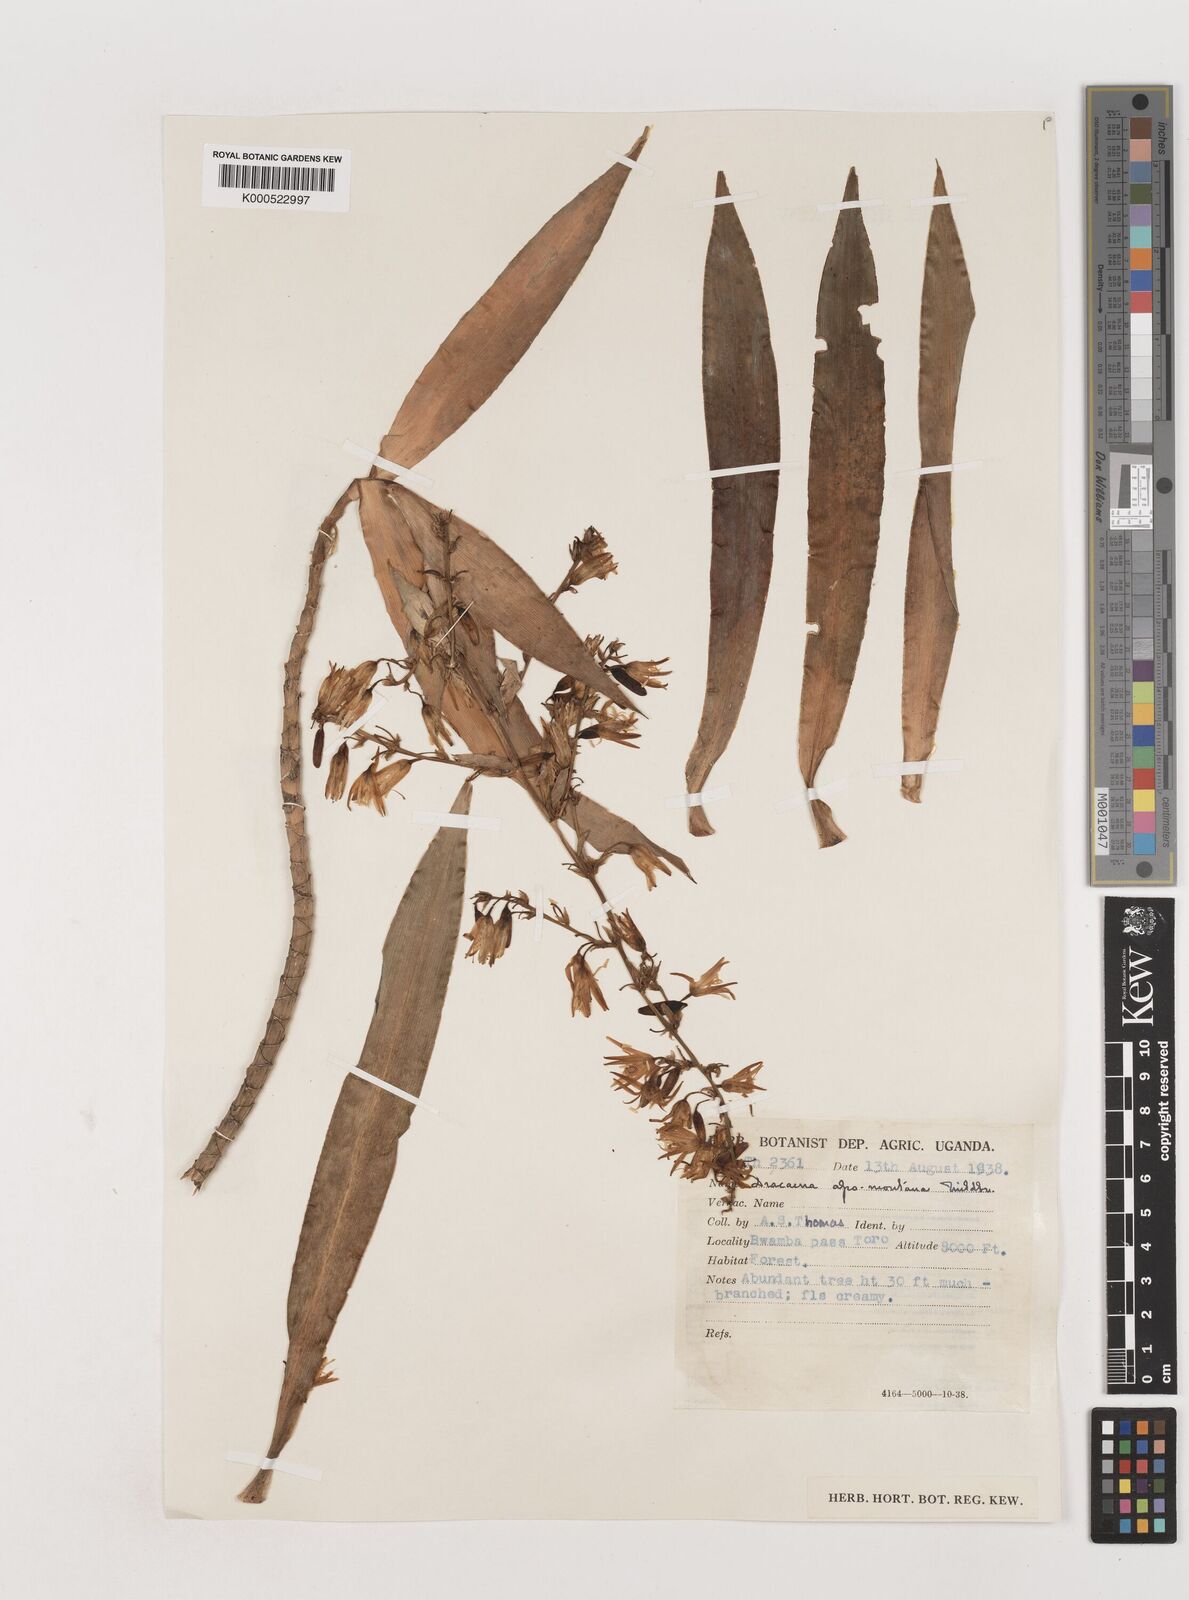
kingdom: Plantae
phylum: Tracheophyta
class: Liliopsida
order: Asparagales
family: Asparagaceae
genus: Dracaena
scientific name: Dracaena afromontana
